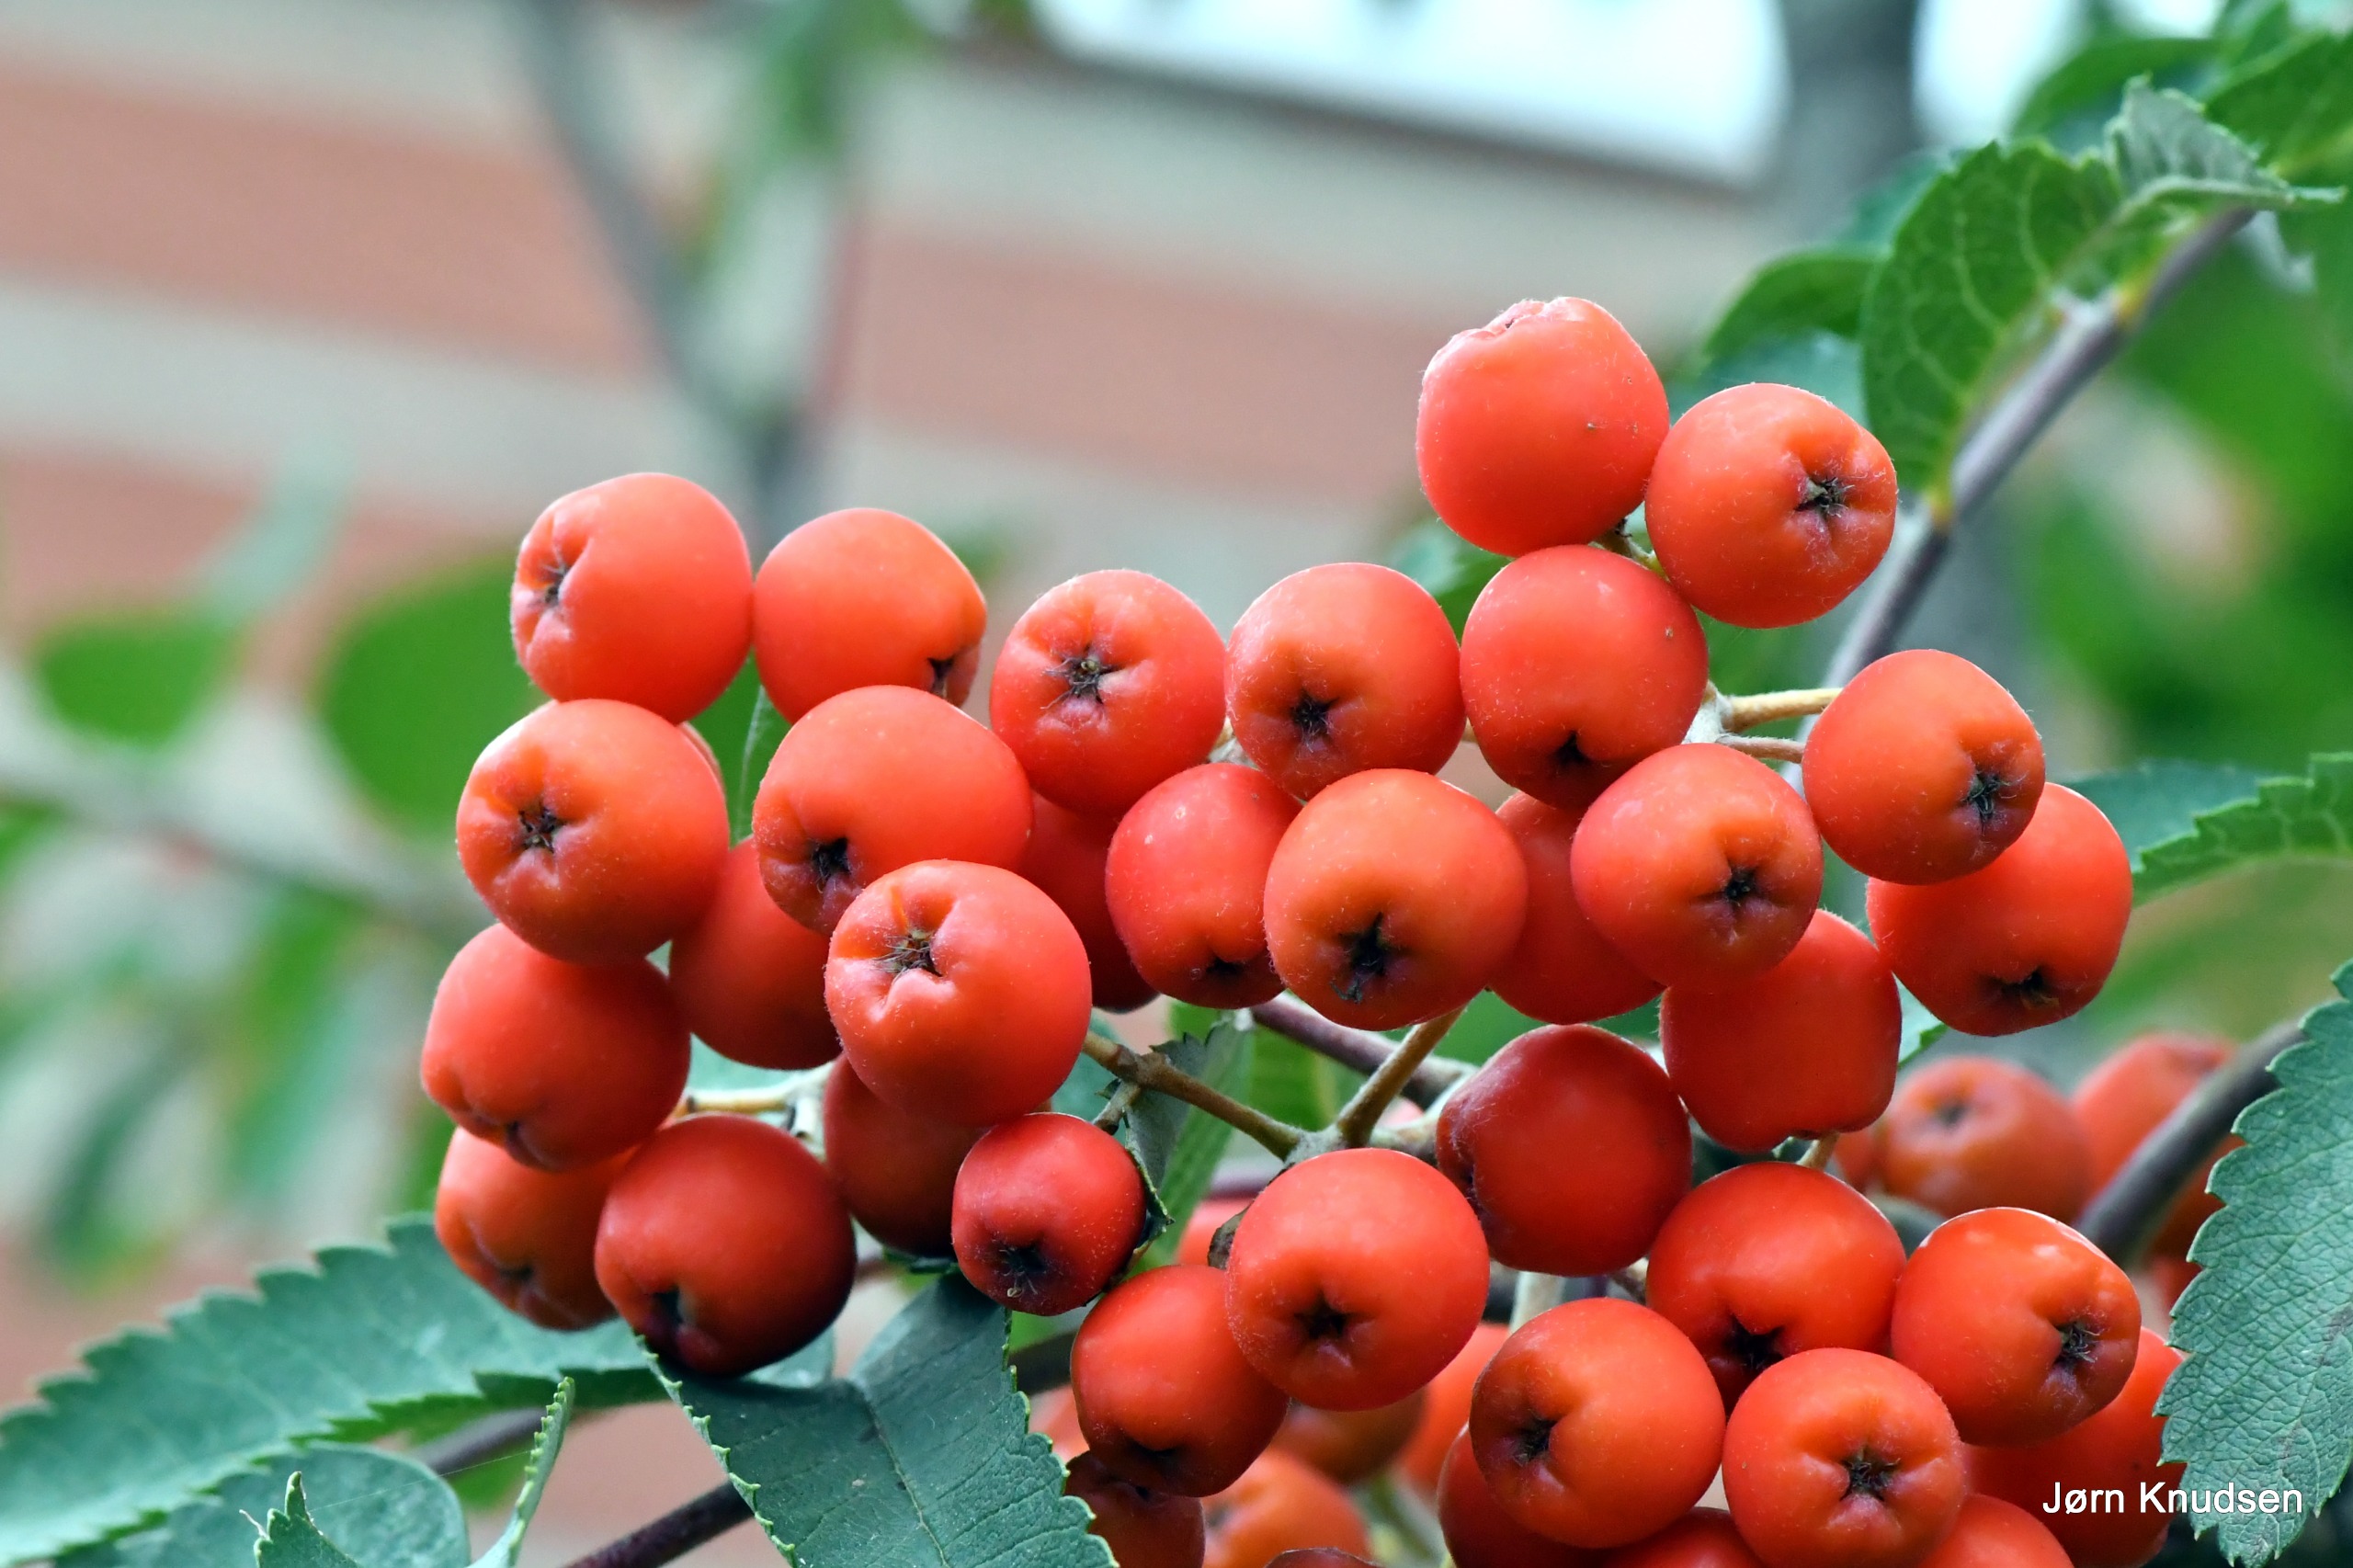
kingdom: Plantae
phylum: Tracheophyta
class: Magnoliopsida
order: Rosales
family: Rosaceae
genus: Sorbus
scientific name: Sorbus aucuparia
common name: Almindelig røn
